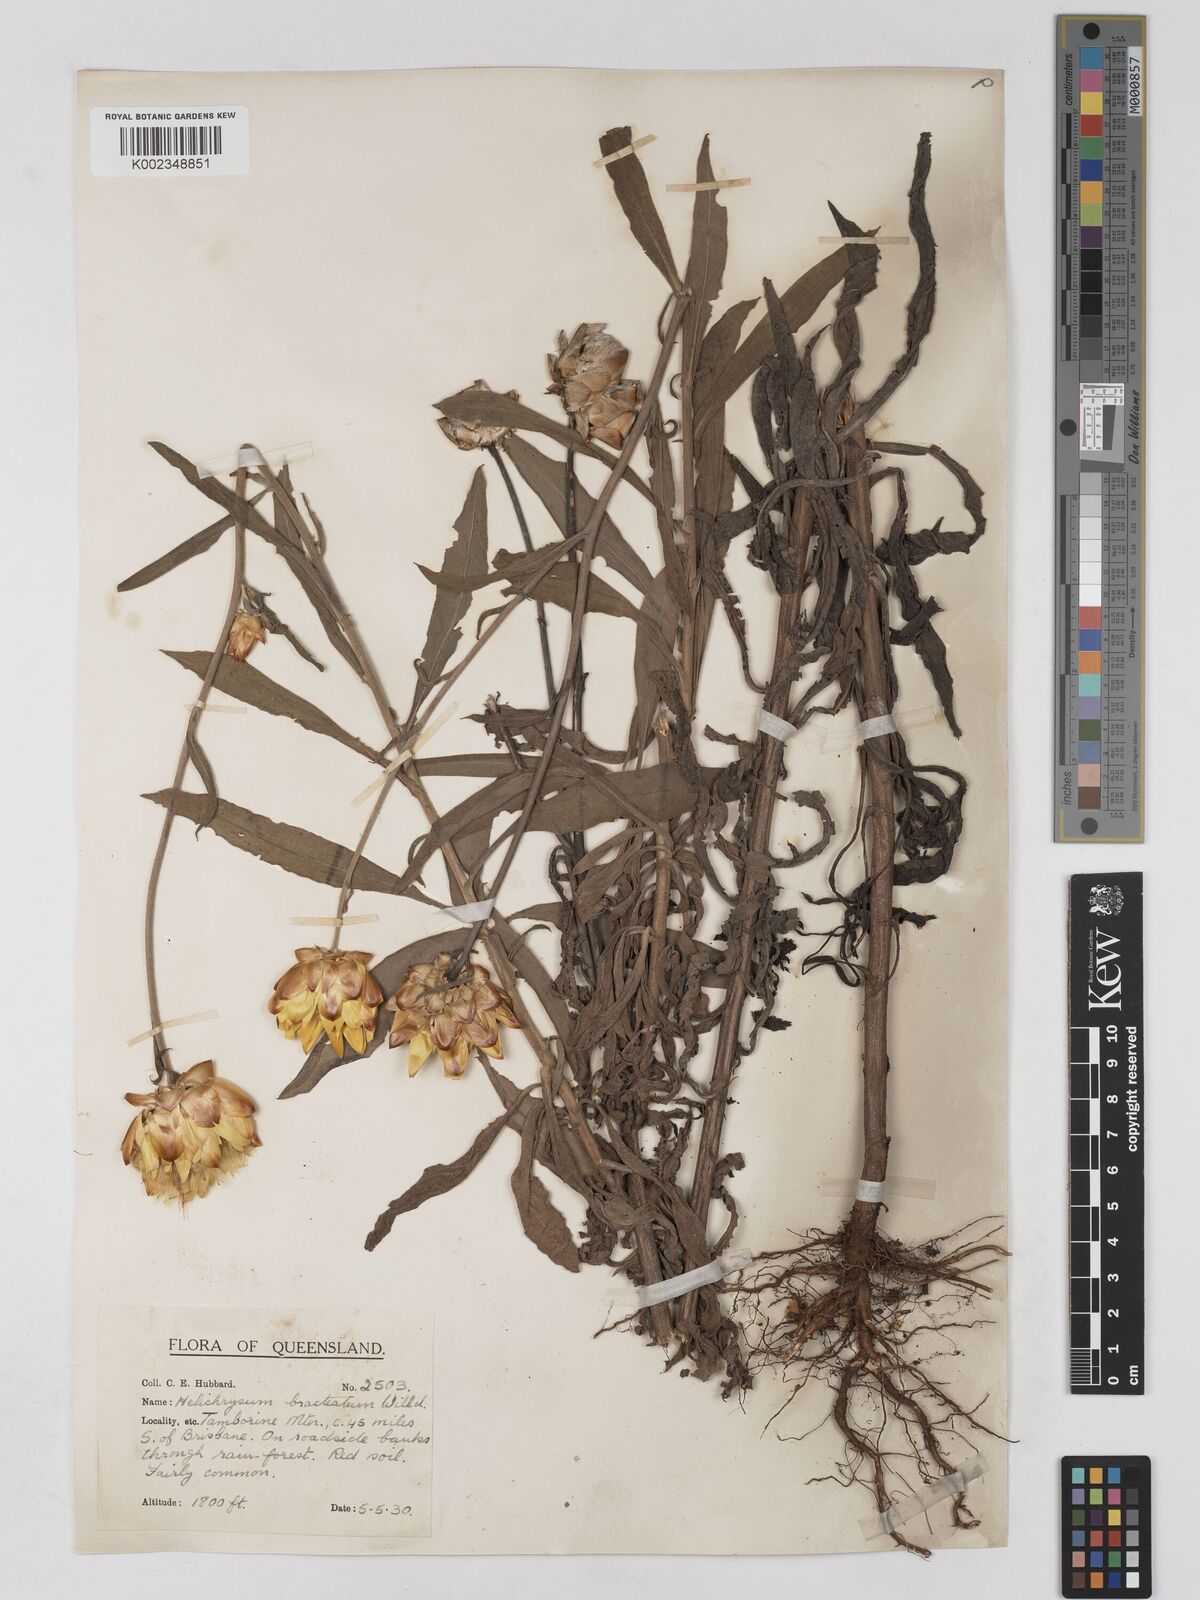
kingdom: Plantae
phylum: Tracheophyta
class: Magnoliopsida
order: Asterales
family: Asteraceae
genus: Xerochrysum
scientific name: Xerochrysum bracteatum
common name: Bracted strawflower
